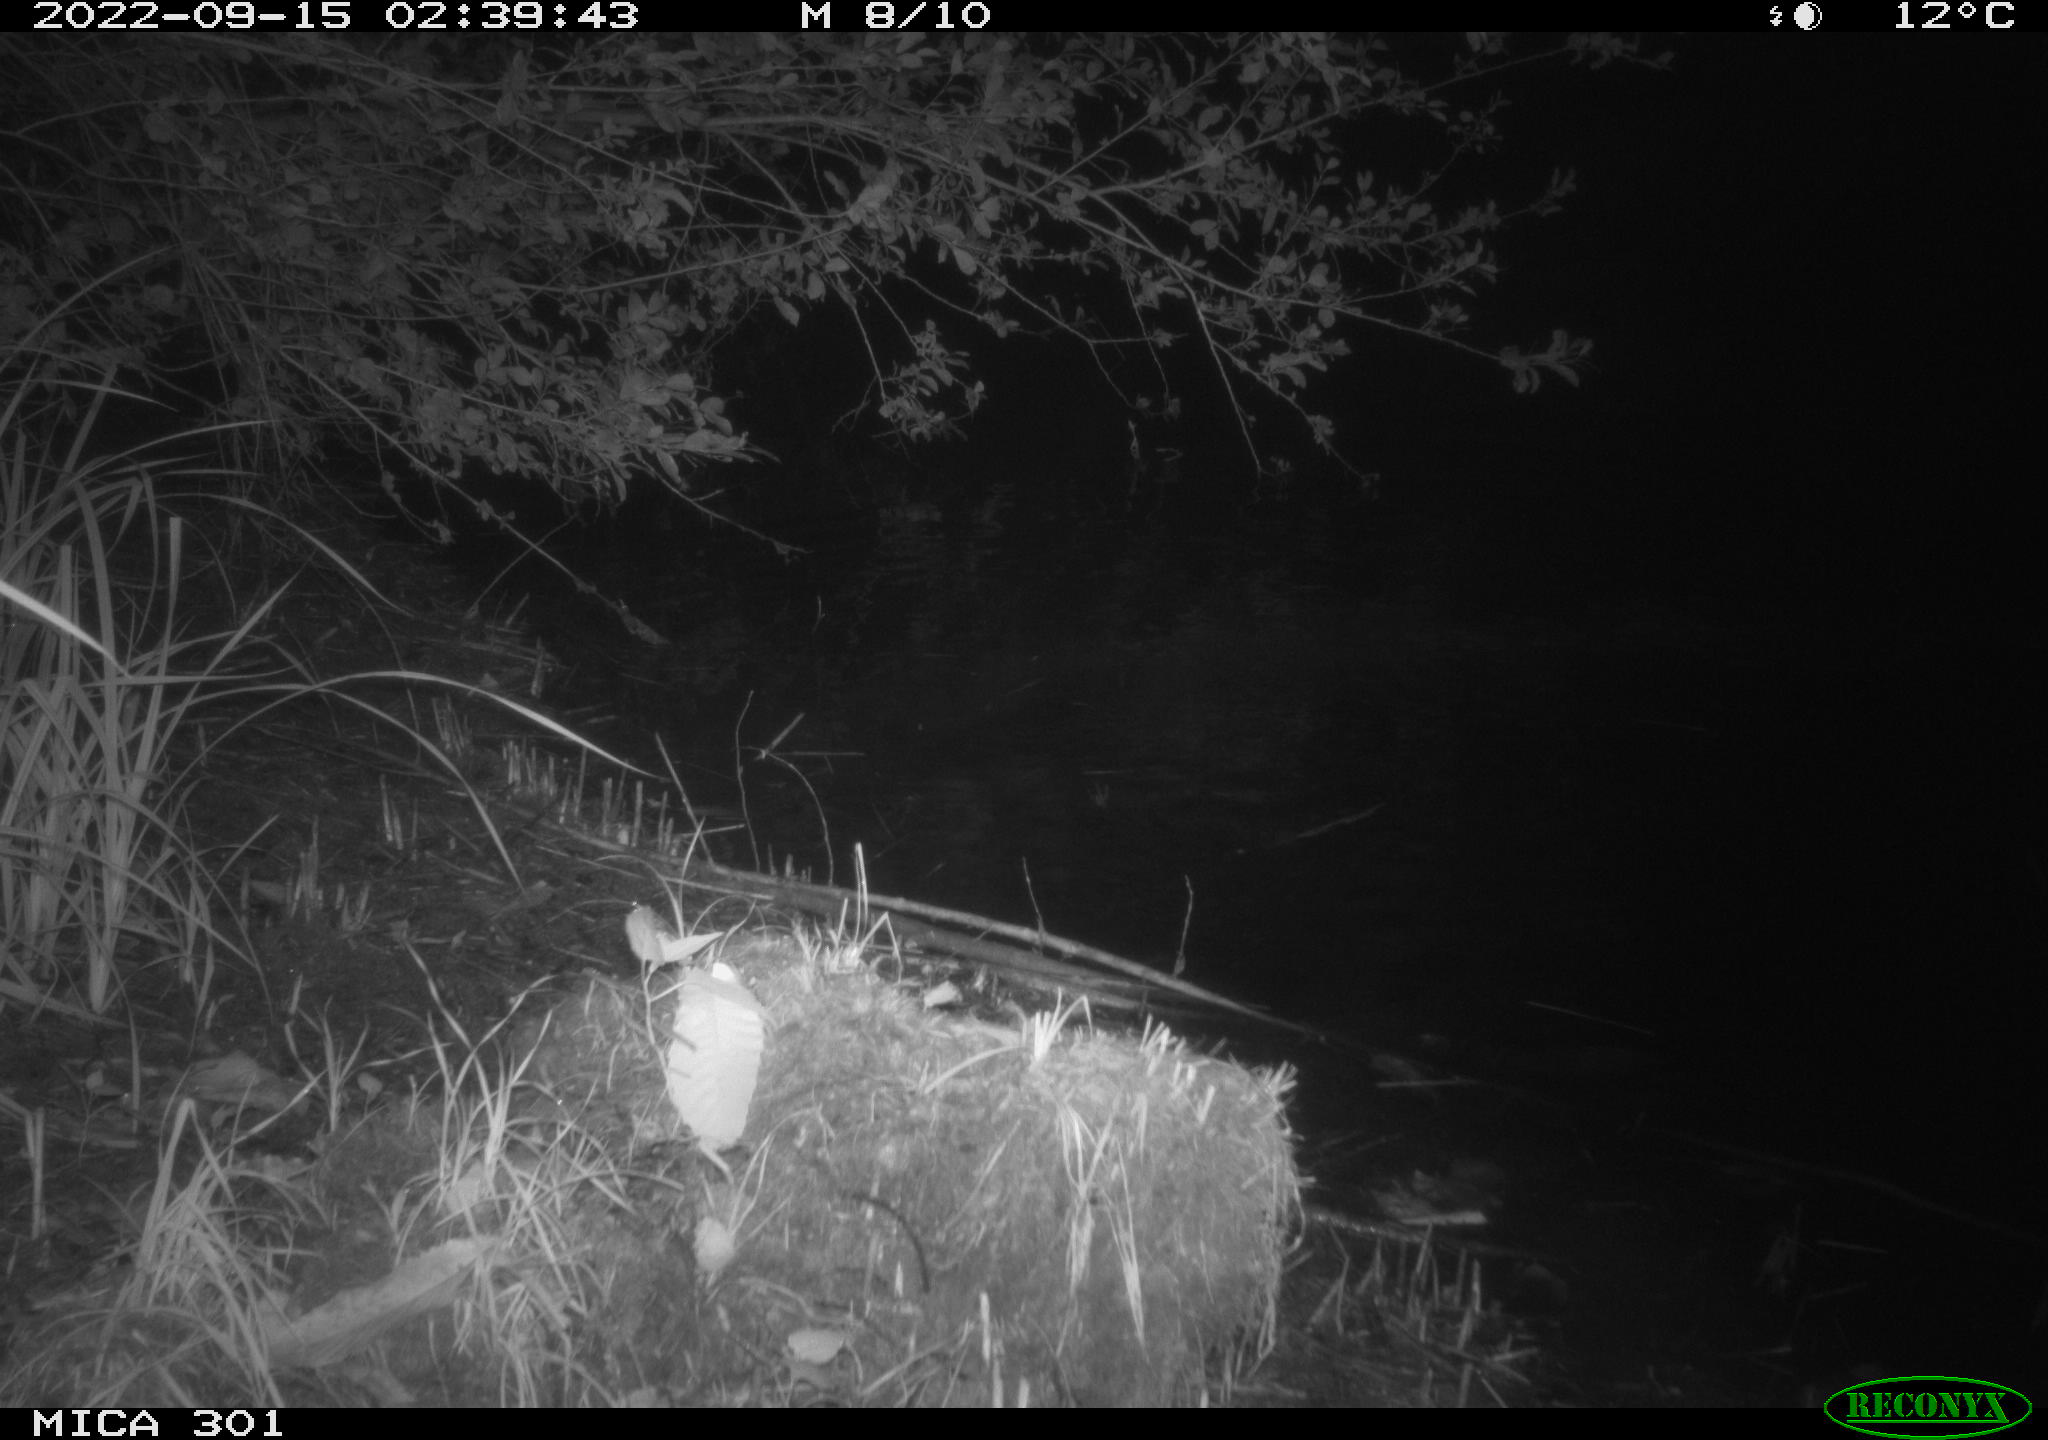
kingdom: Animalia
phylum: Chordata
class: Mammalia
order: Rodentia
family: Castoridae
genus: Castor
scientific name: Castor fiber
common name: Eurasian beaver
